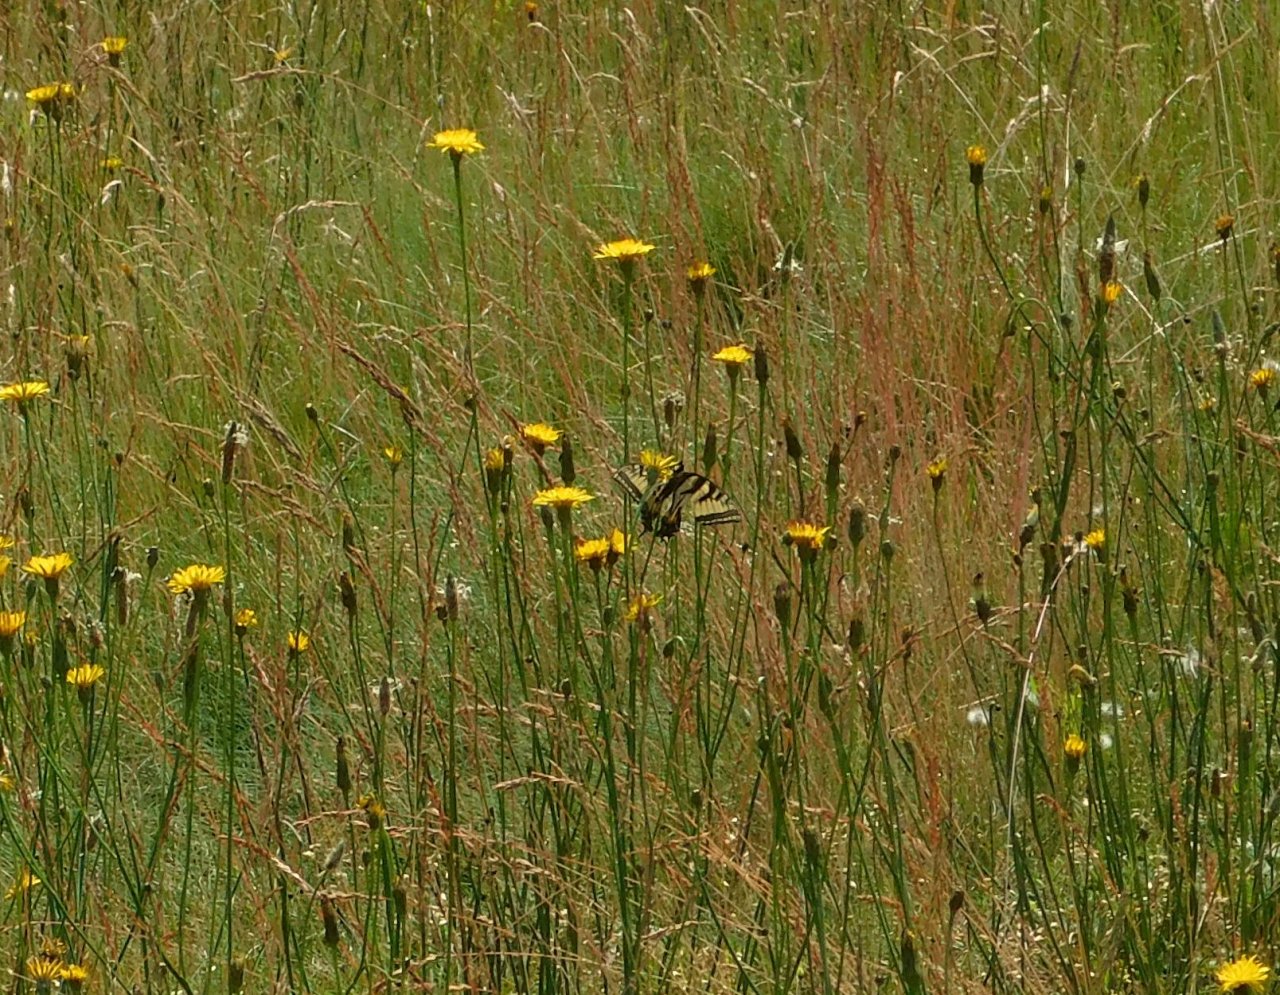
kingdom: Animalia
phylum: Arthropoda
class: Insecta
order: Lepidoptera
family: Papilionidae
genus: Pterourus
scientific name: Pterourus canadensis
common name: Canadian Tiger Swallowtail
